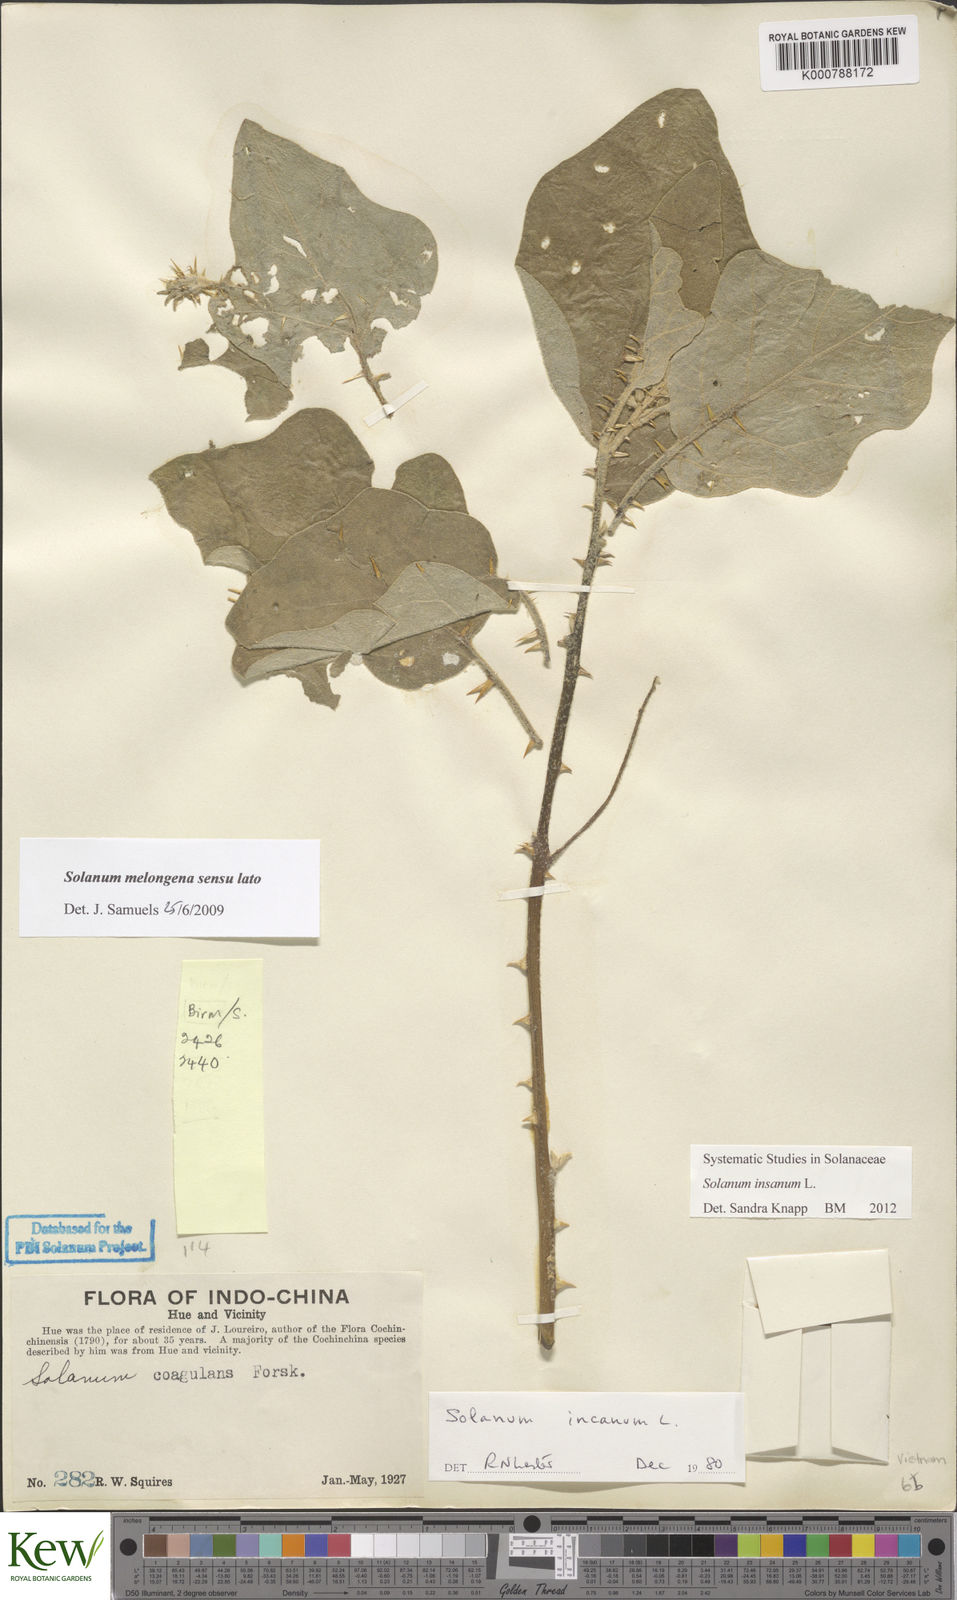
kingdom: Plantae
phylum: Tracheophyta
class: Magnoliopsida
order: Solanales
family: Solanaceae
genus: Solanum
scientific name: Solanum insanum
